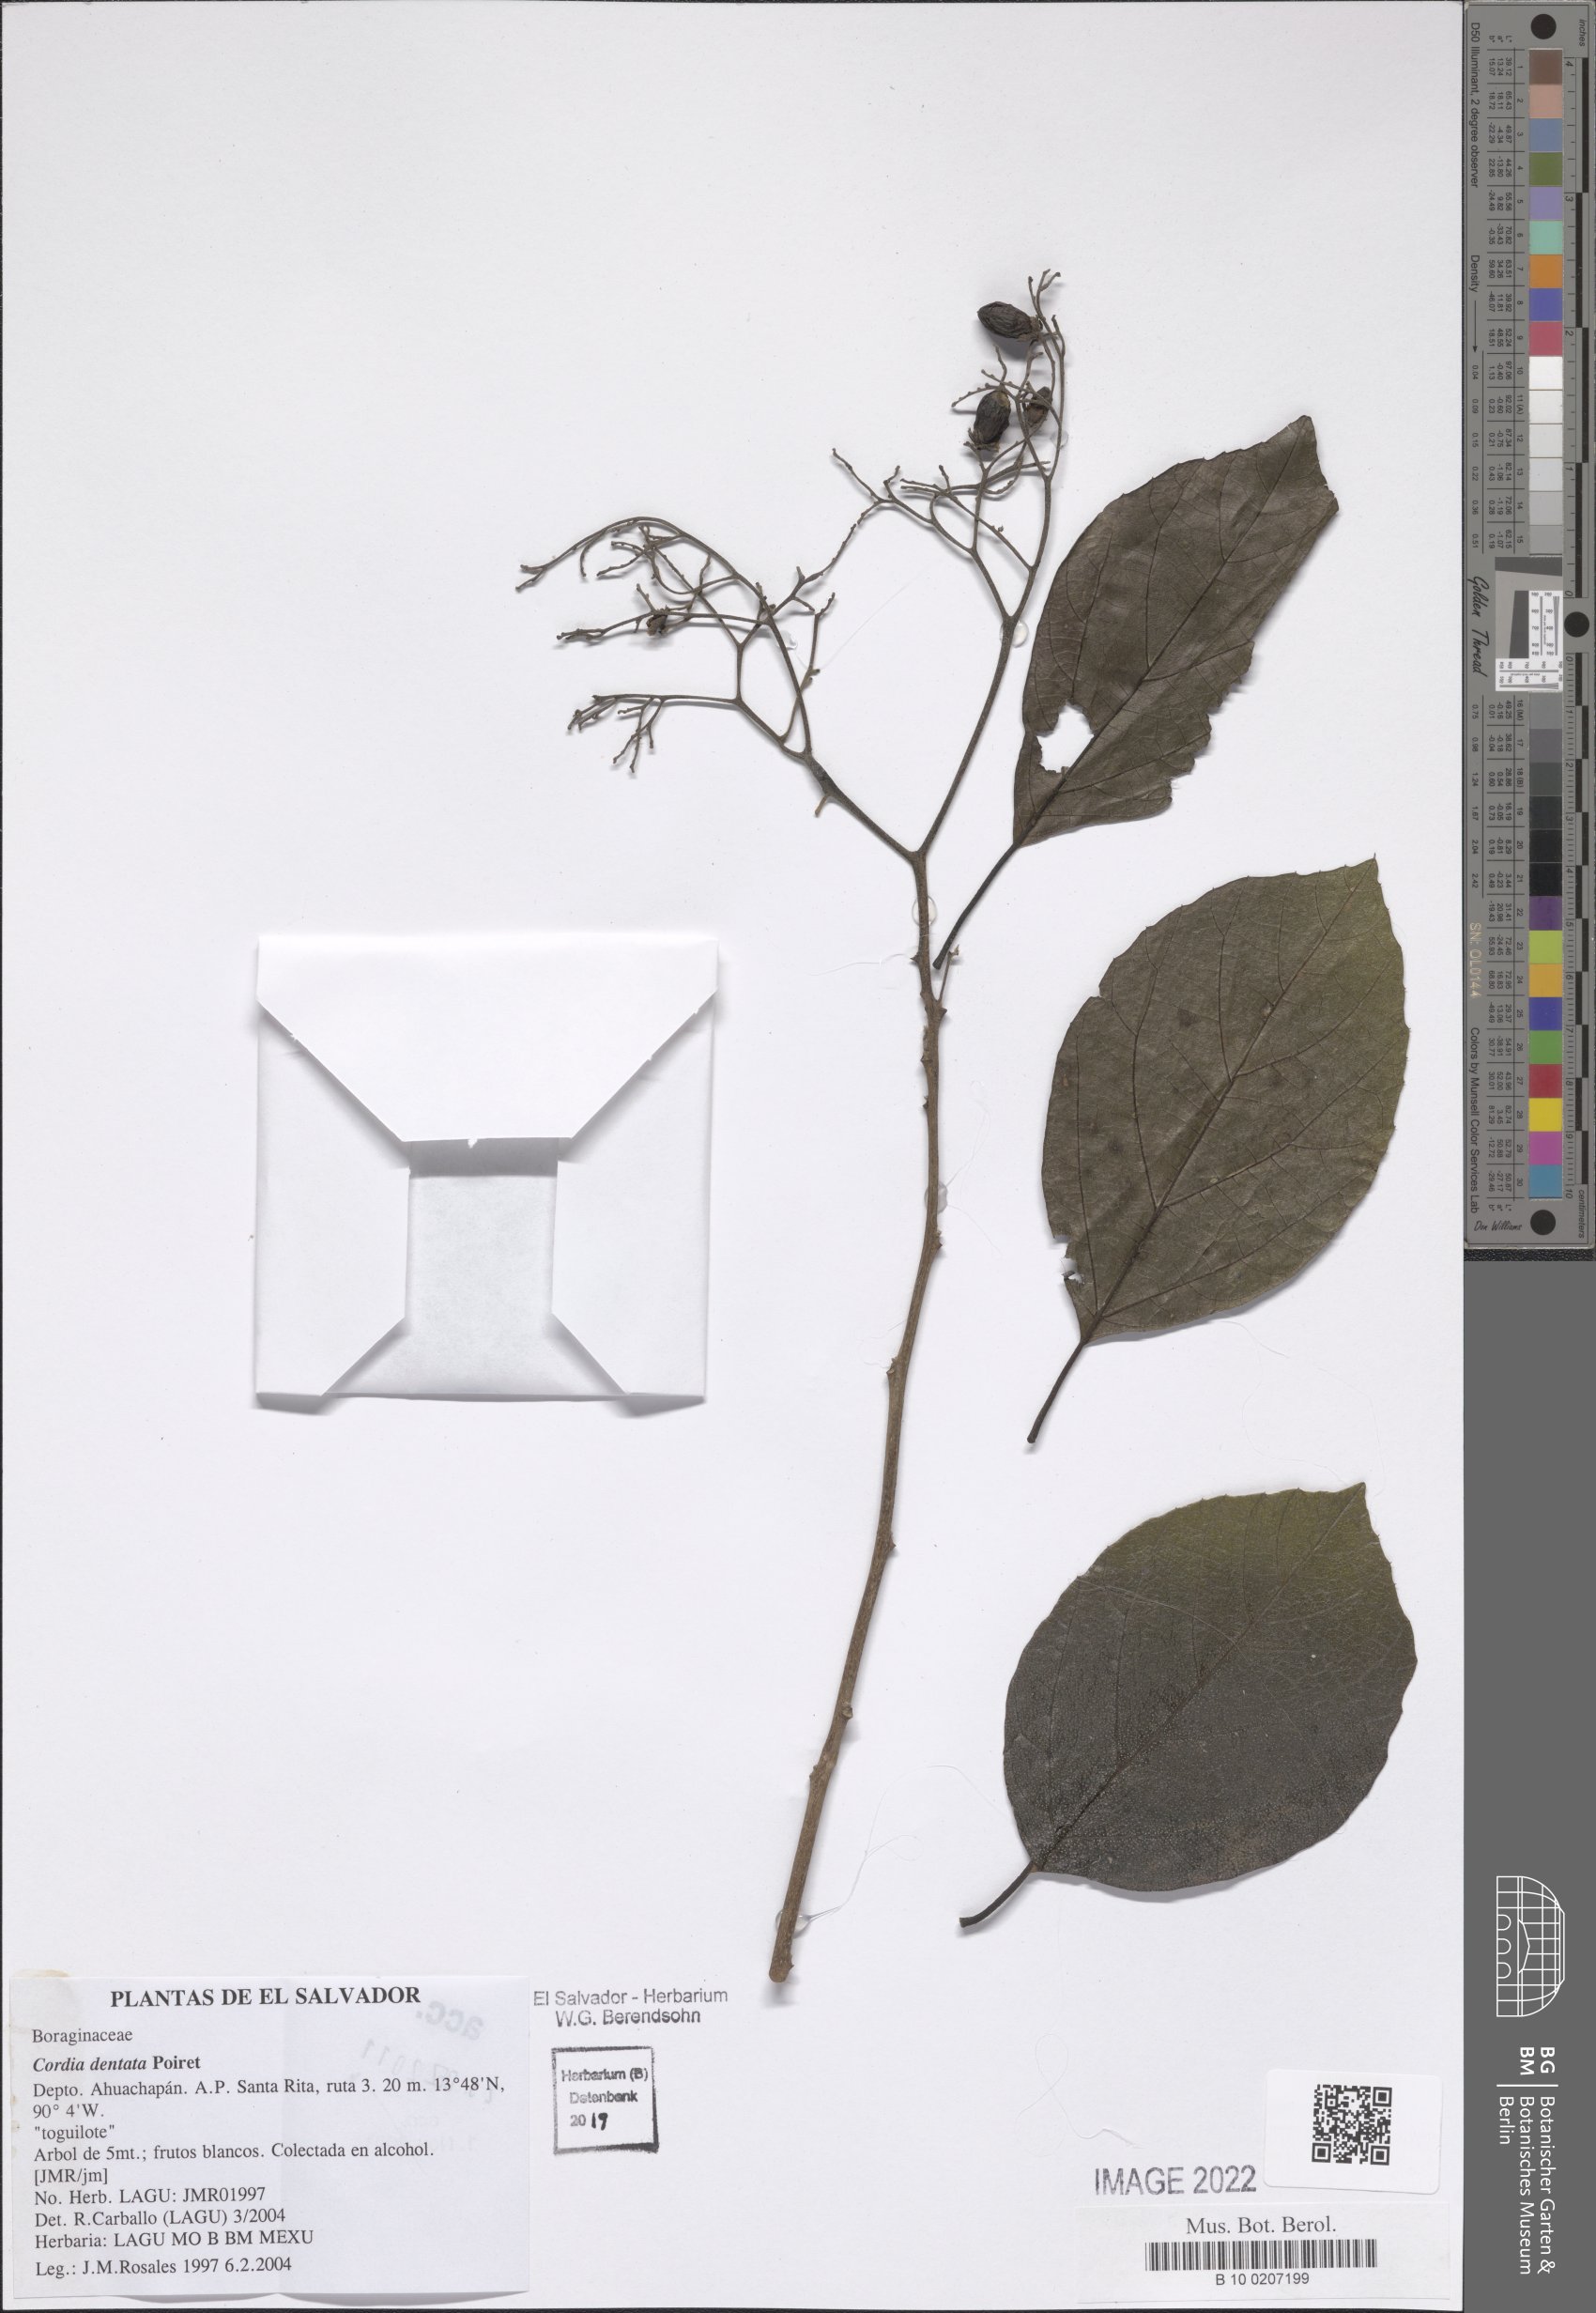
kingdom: Plantae
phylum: Tracheophyta
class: Magnoliopsida
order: Boraginales
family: Cordiaceae
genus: Cordia
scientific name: Cordia dentata
